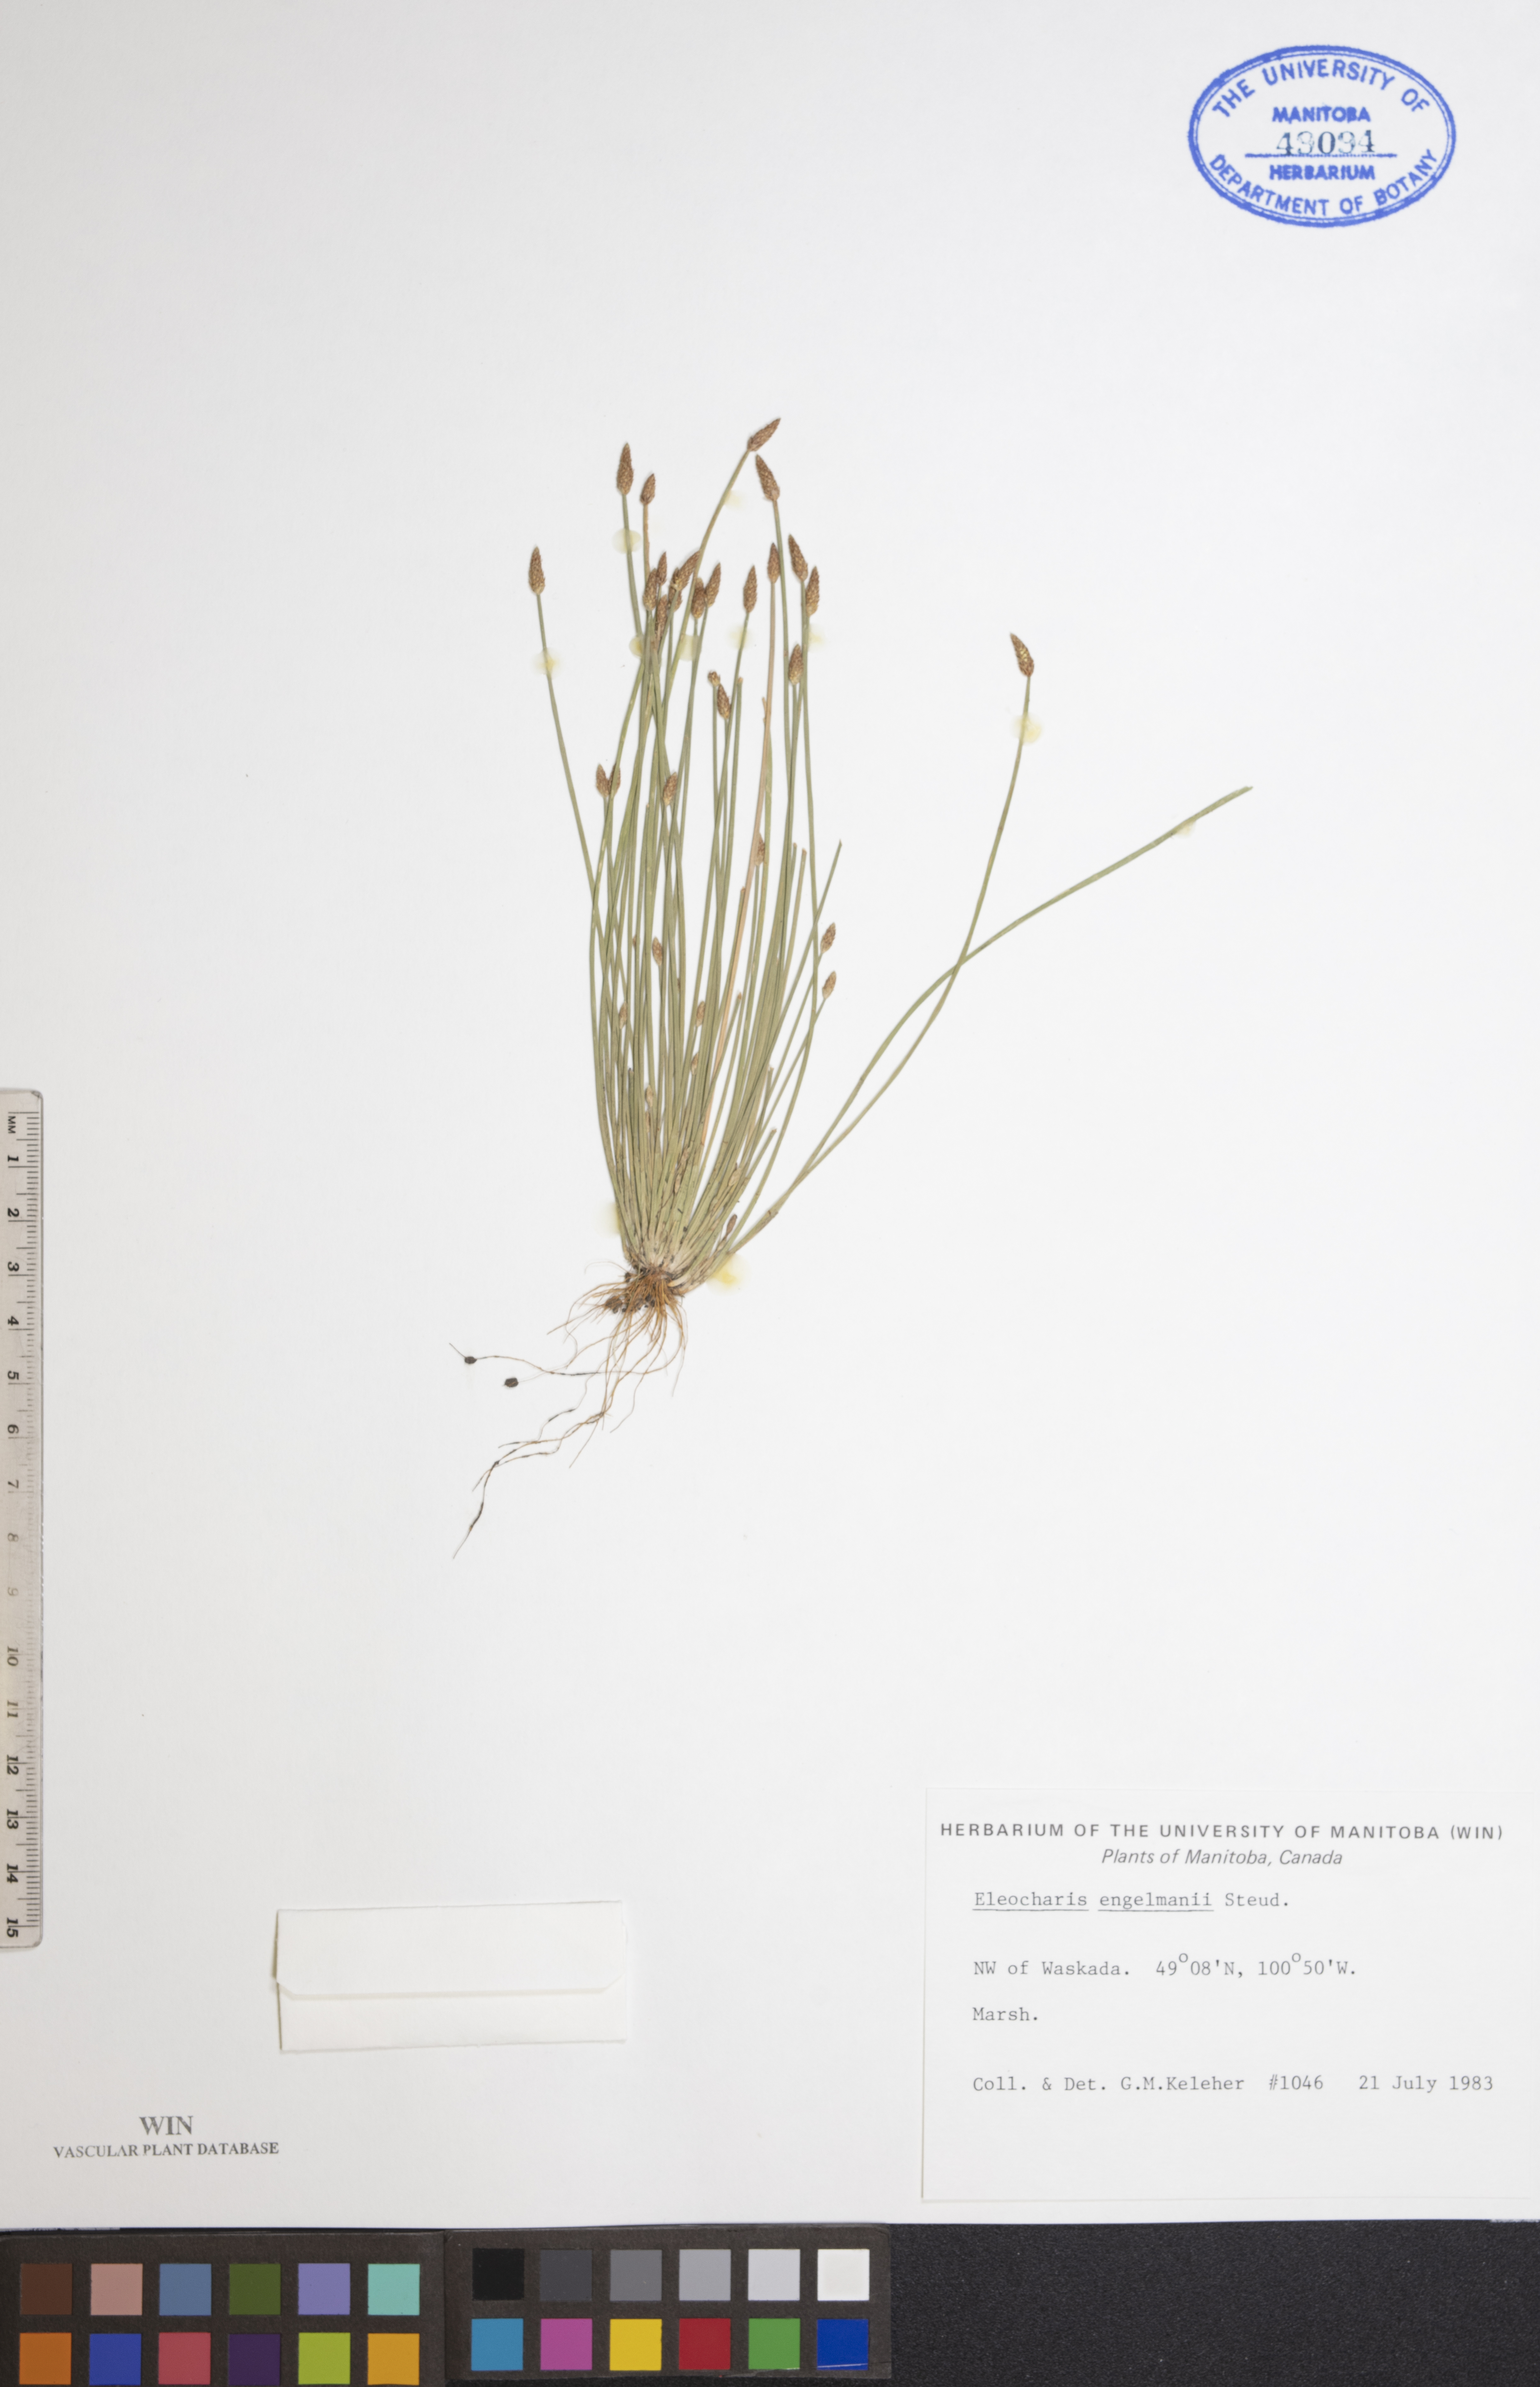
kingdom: Plantae
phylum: Tracheophyta
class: Liliopsida
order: Poales
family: Cyperaceae
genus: Eleocharis
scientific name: Eleocharis engelmannii
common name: Engelmann's spikerush
